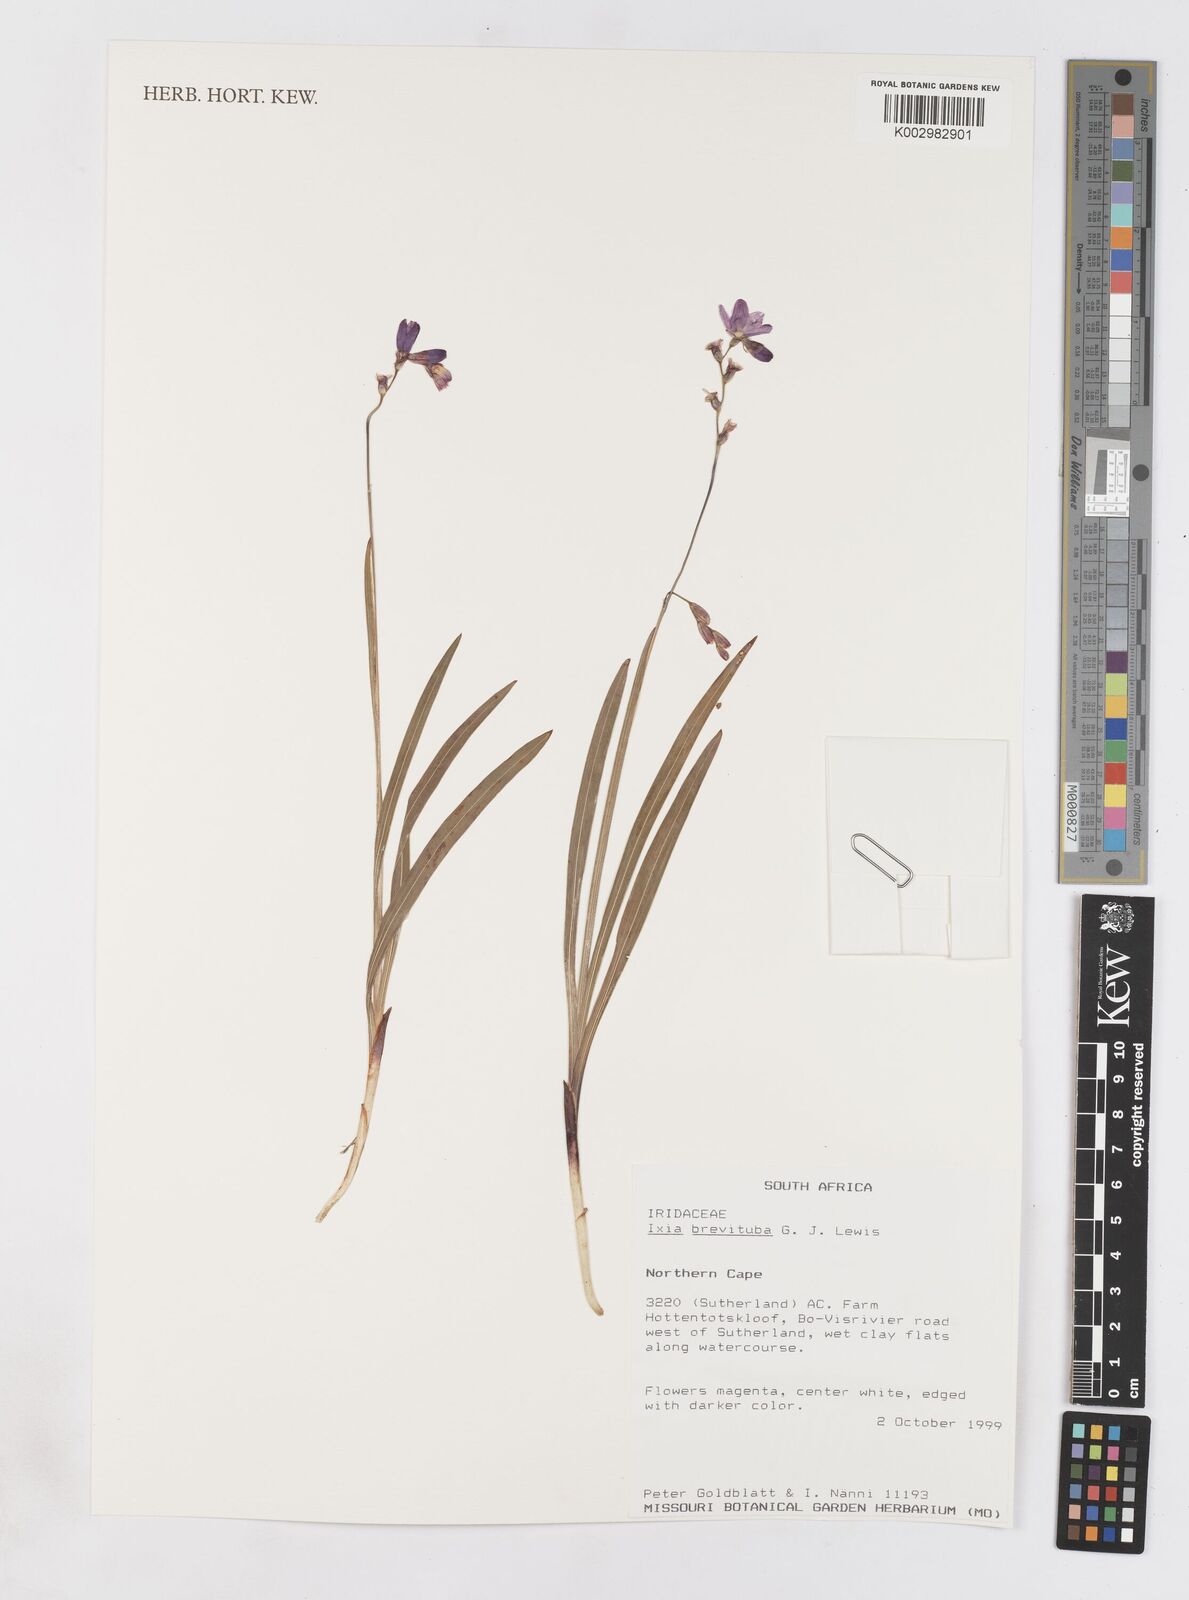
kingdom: Plantae
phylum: Tracheophyta
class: Liliopsida
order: Asparagales
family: Iridaceae
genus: Ixia
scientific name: Ixia brevituba
